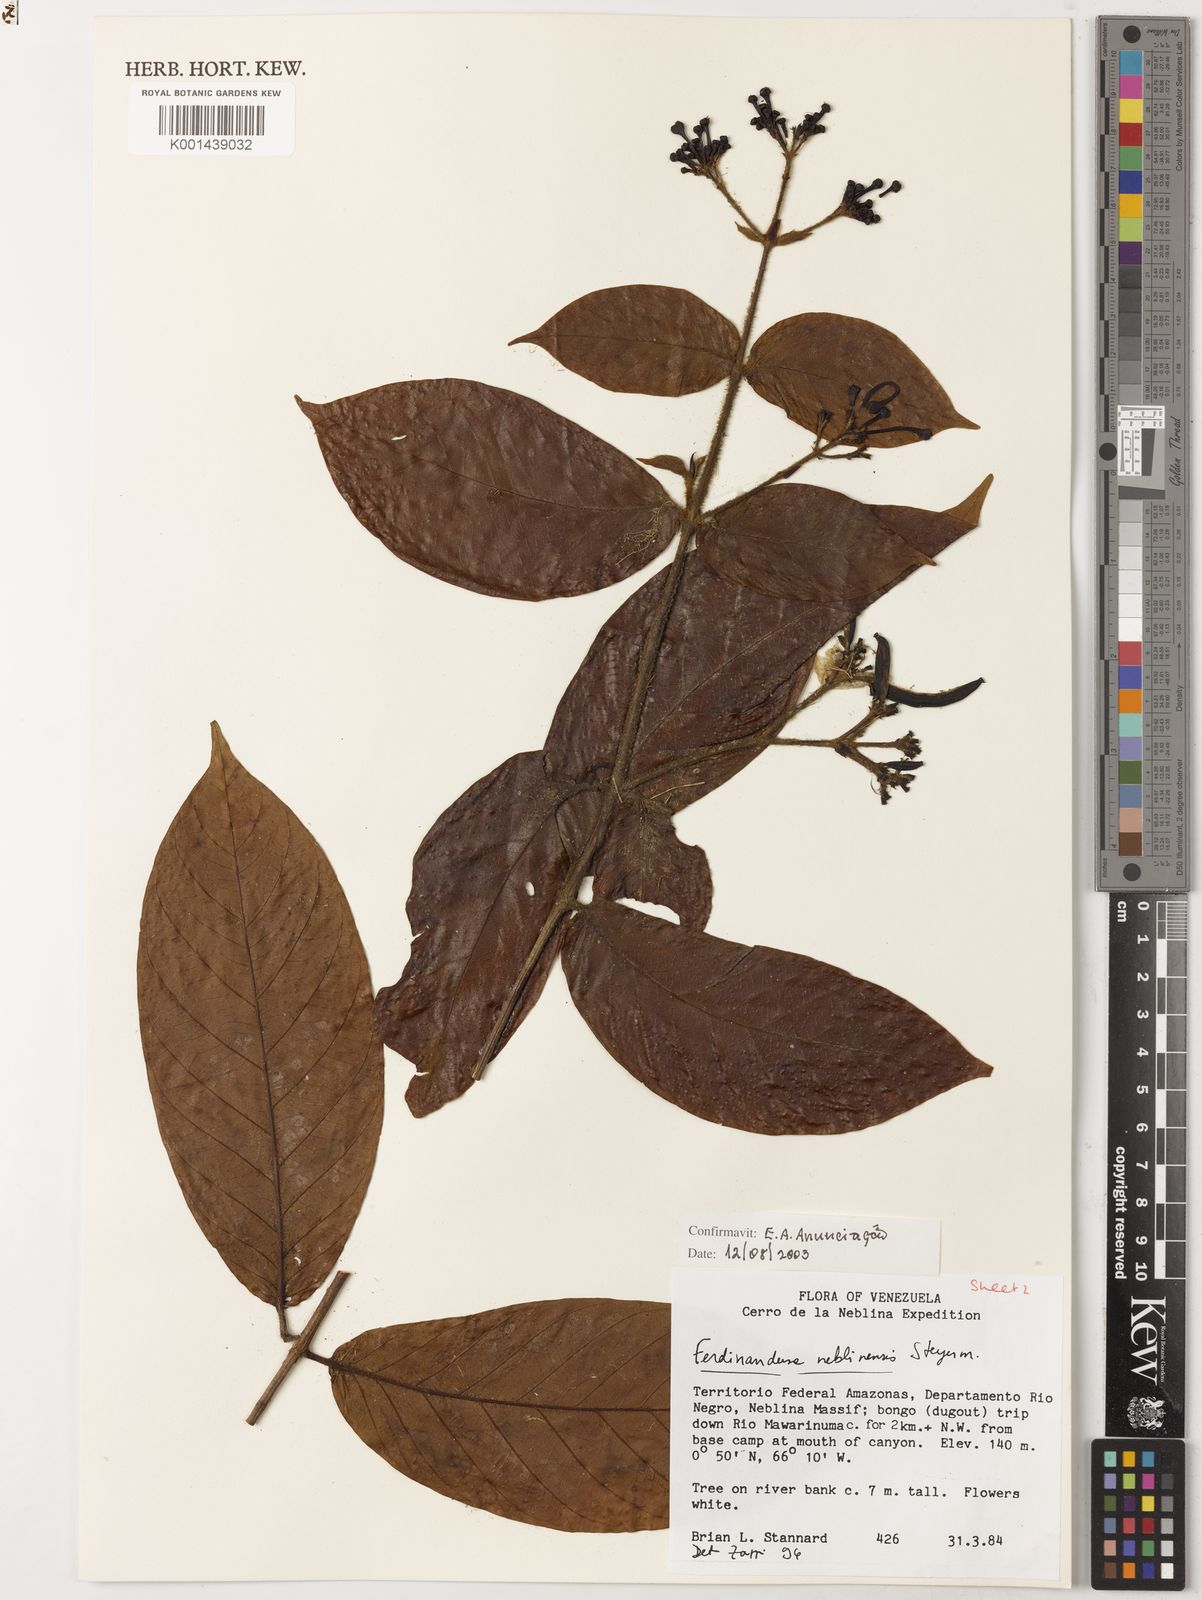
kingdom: Plantae
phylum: Tracheophyta
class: Magnoliopsida
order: Gentianales
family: Rubiaceae
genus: Ferdinandusa
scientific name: Ferdinandusa neblinensis
